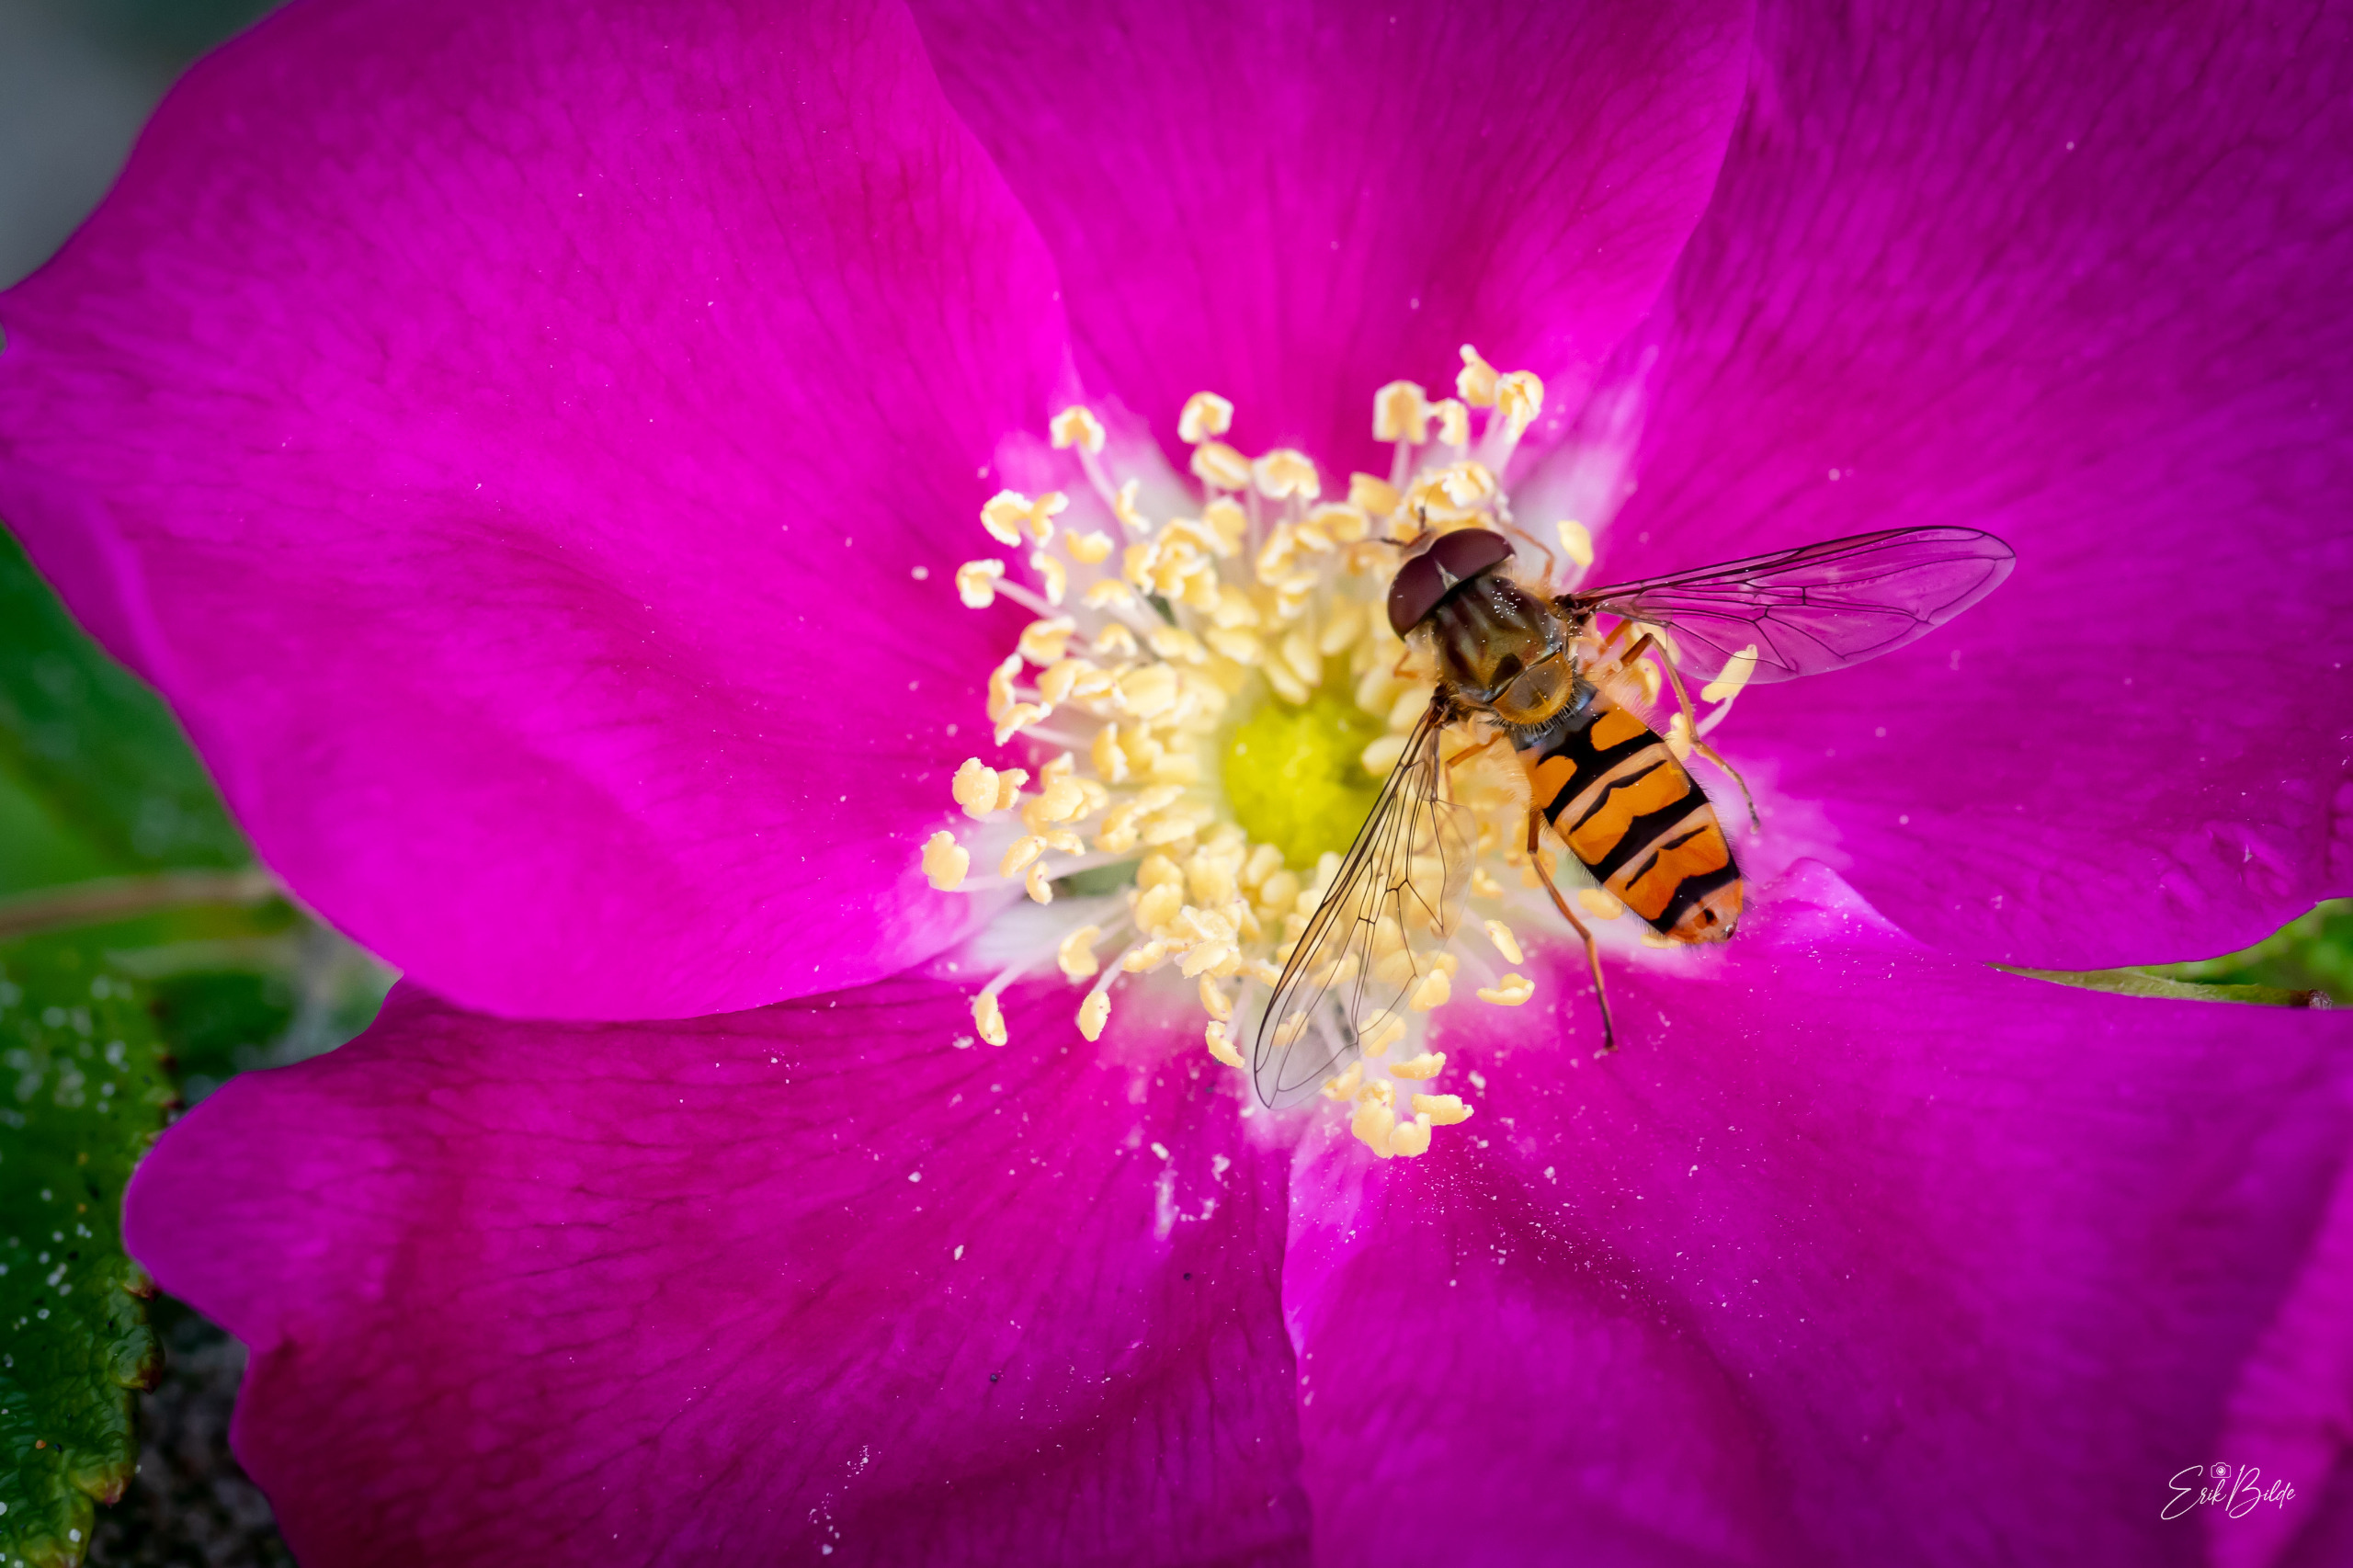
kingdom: Animalia
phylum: Arthropoda
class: Insecta
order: Diptera
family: Syrphidae
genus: Episyrphus
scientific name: Episyrphus balteatus
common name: Dobbeltbåndet svirreflue
